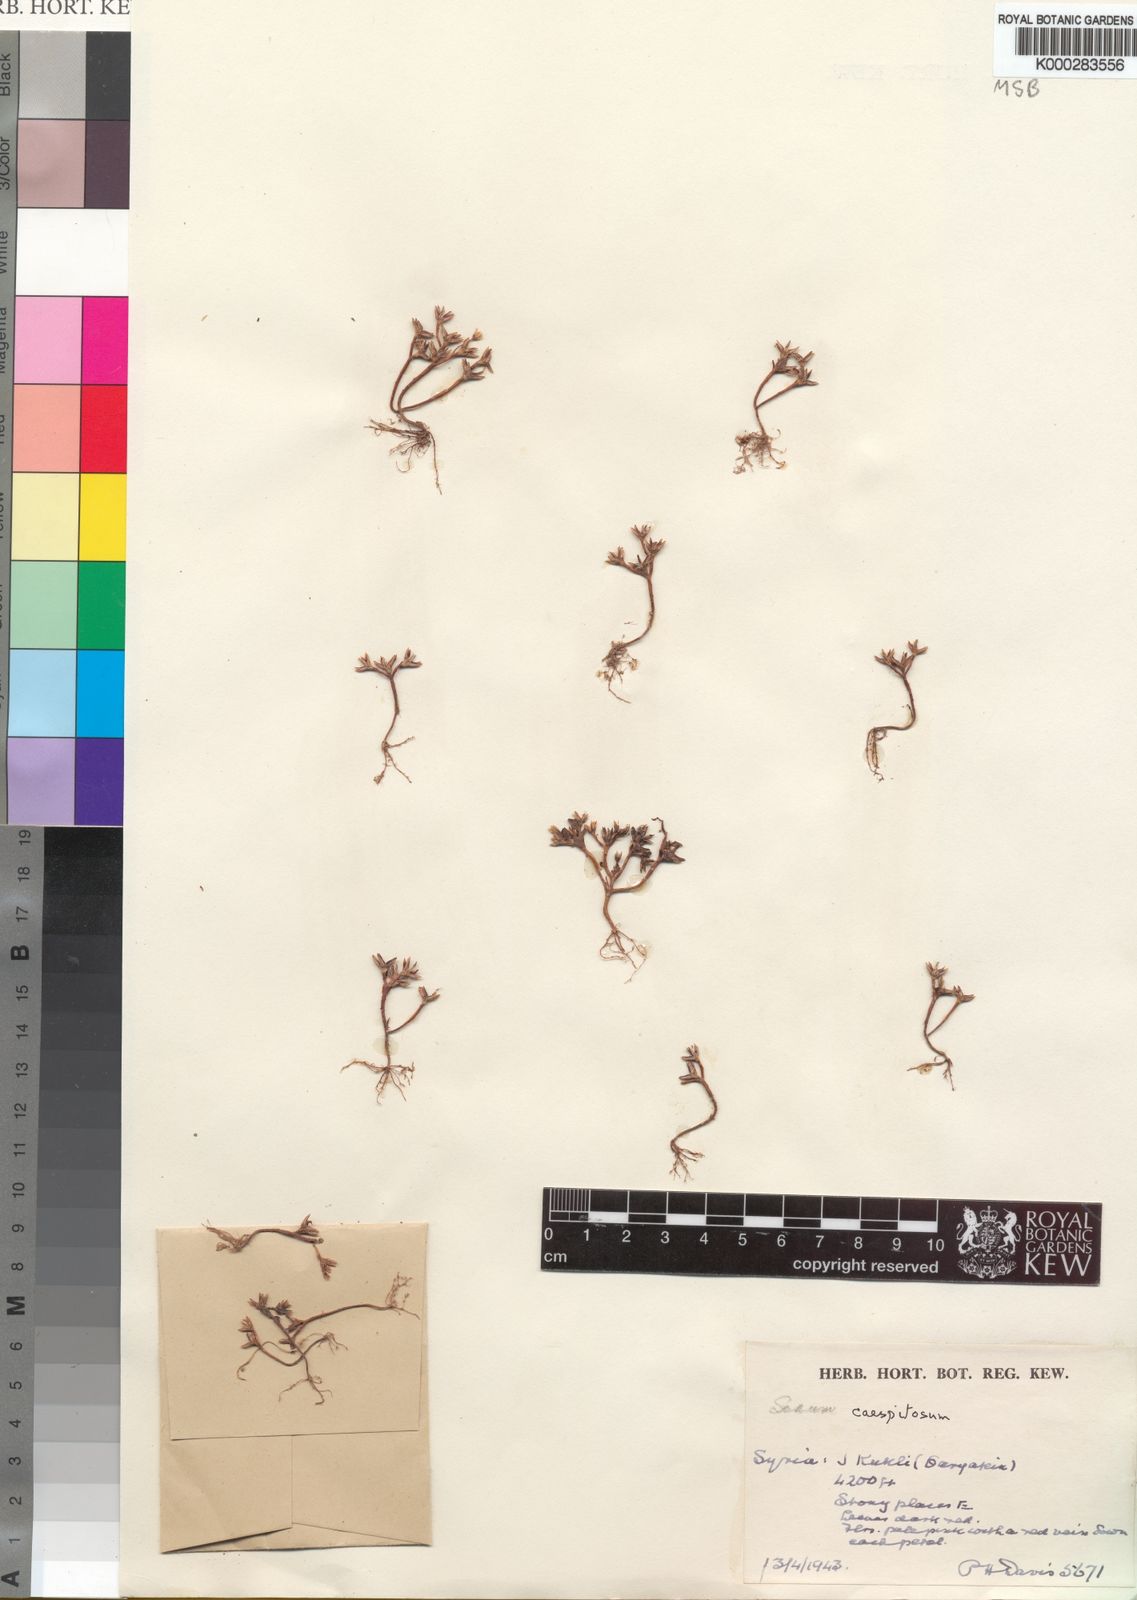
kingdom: Plantae
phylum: Tracheophyta
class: Magnoliopsida
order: Saxifragales
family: Crassulaceae
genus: Sedum
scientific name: Sedum
